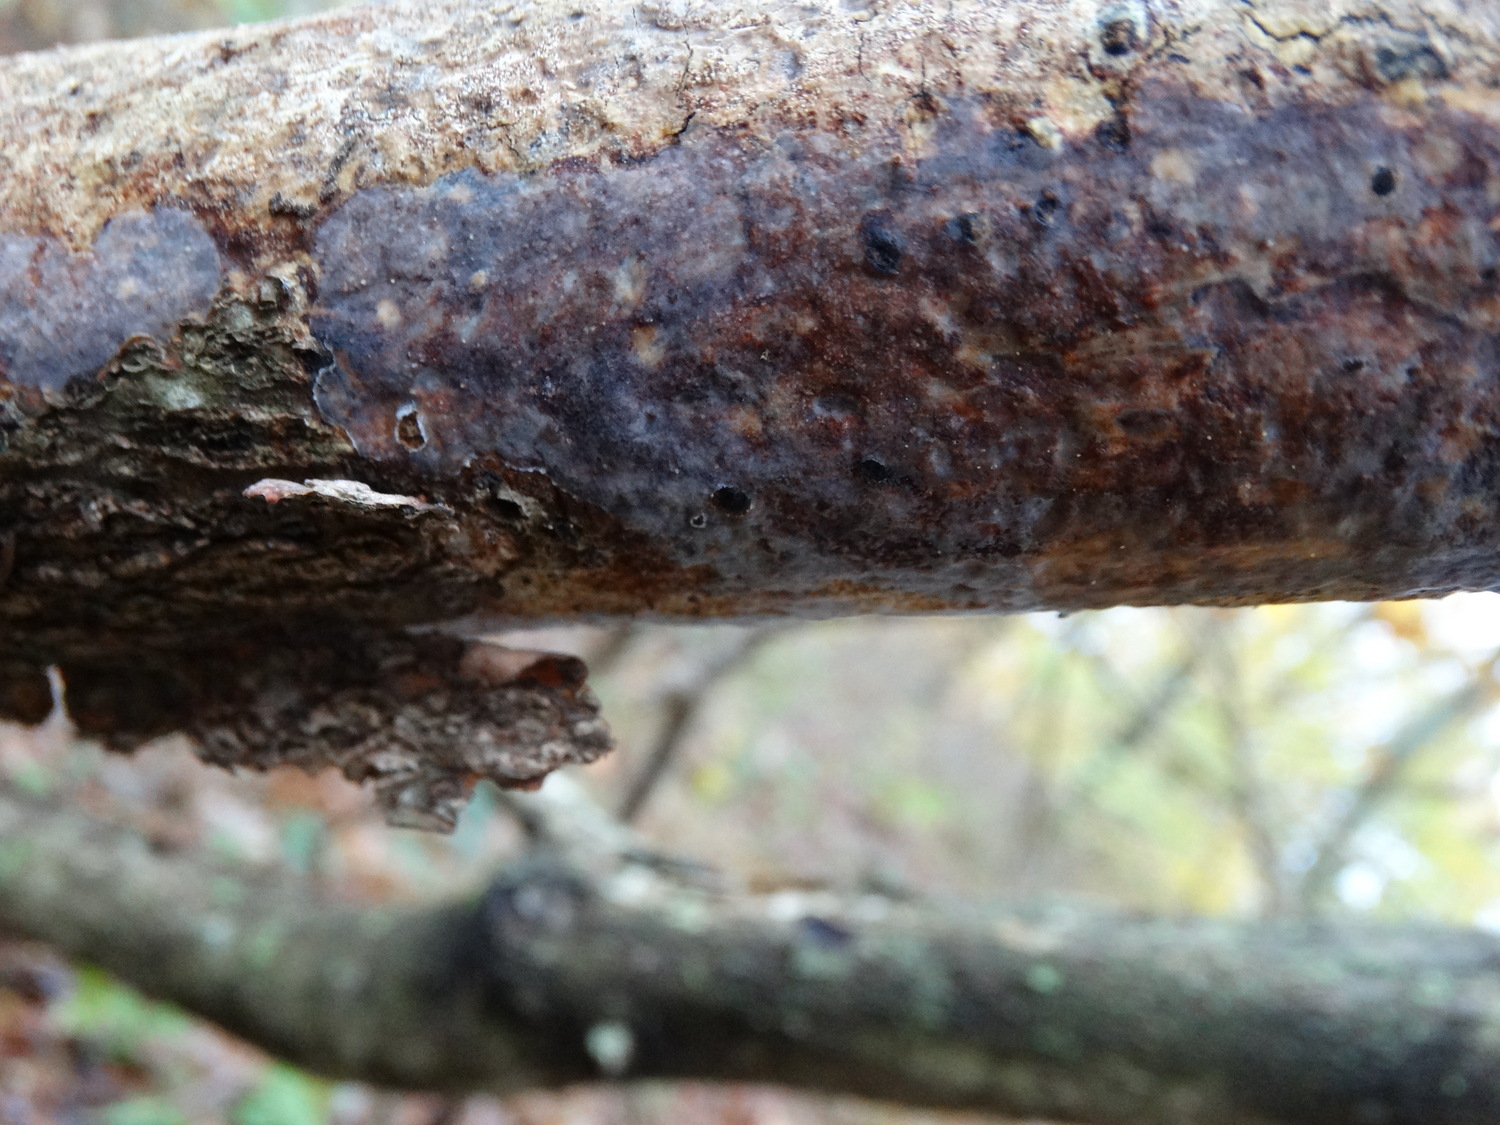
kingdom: Fungi
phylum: Basidiomycota
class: Agaricomycetes
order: Corticiales
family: Vuilleminiaceae
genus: Vuilleminia
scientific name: Vuilleminia comedens
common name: almindelig barksprænger
